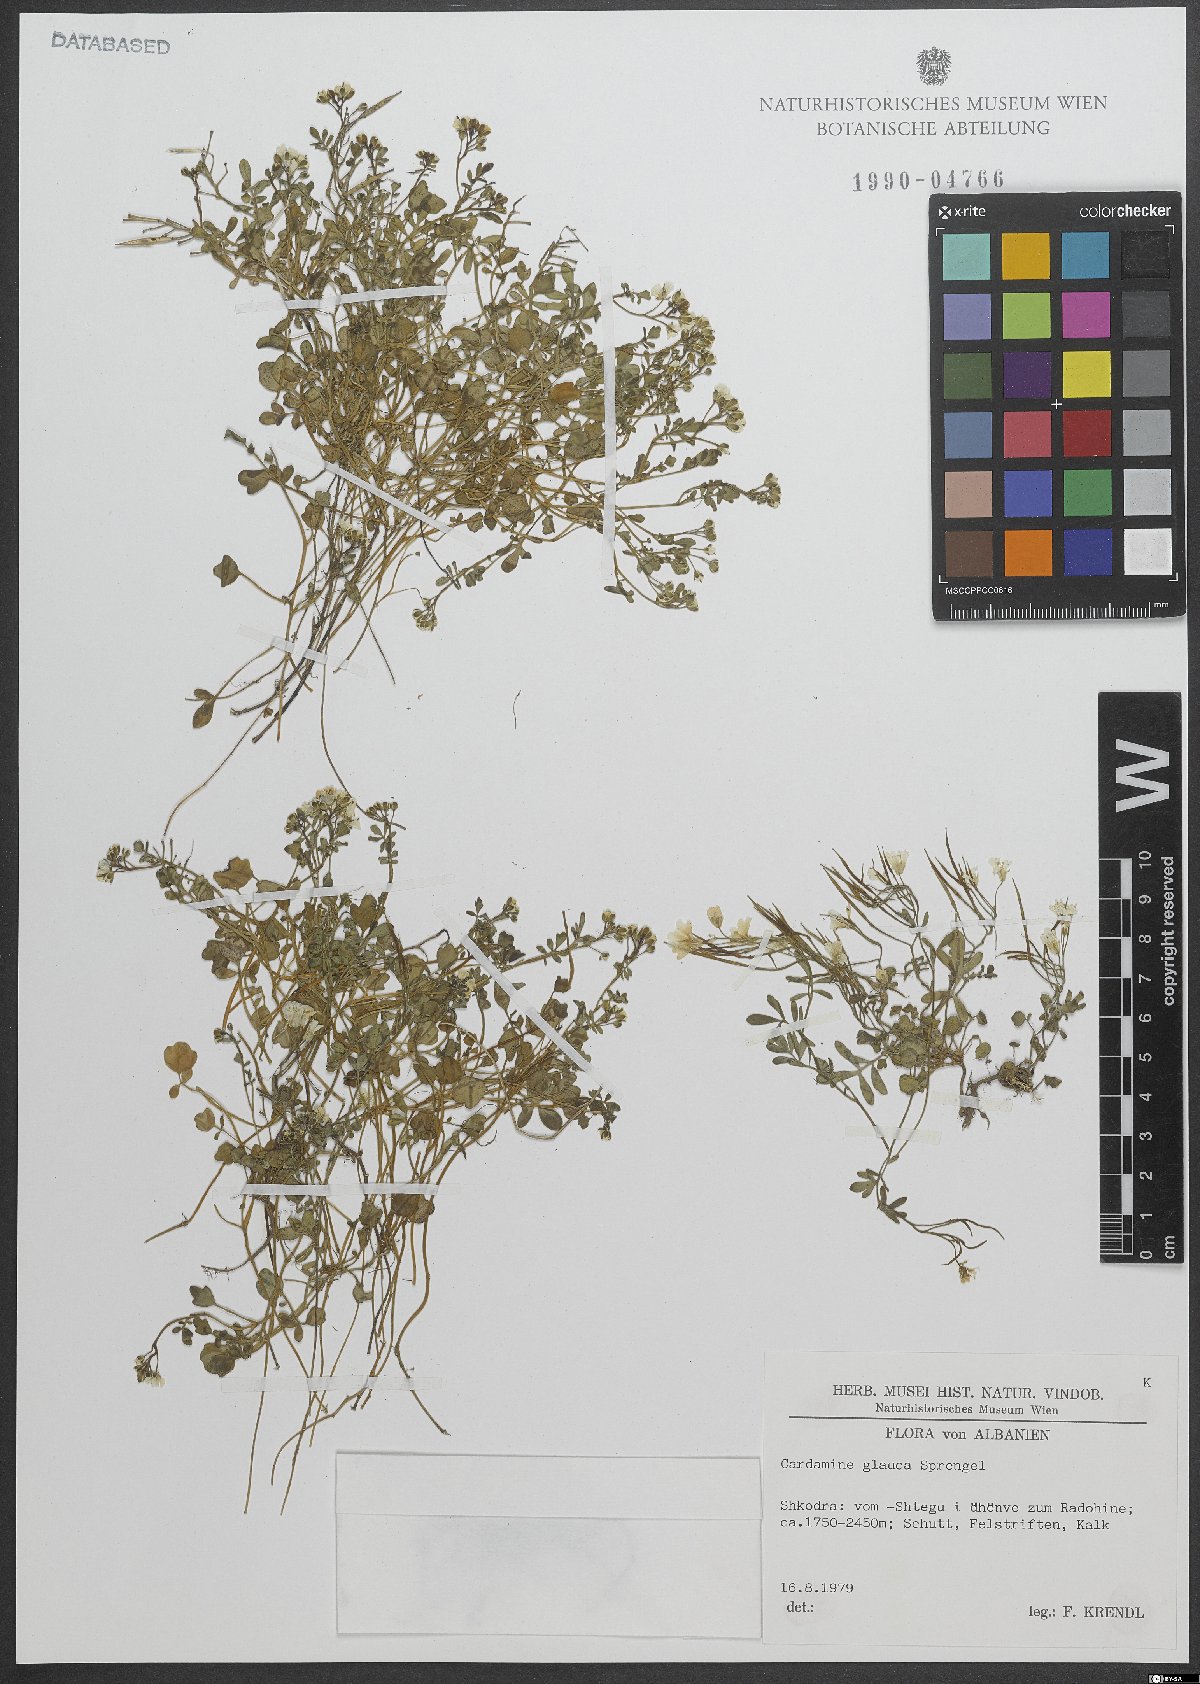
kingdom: Plantae
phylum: Tracheophyta
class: Magnoliopsida
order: Brassicales
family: Brassicaceae
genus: Cardamine
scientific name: Cardamine glauca
